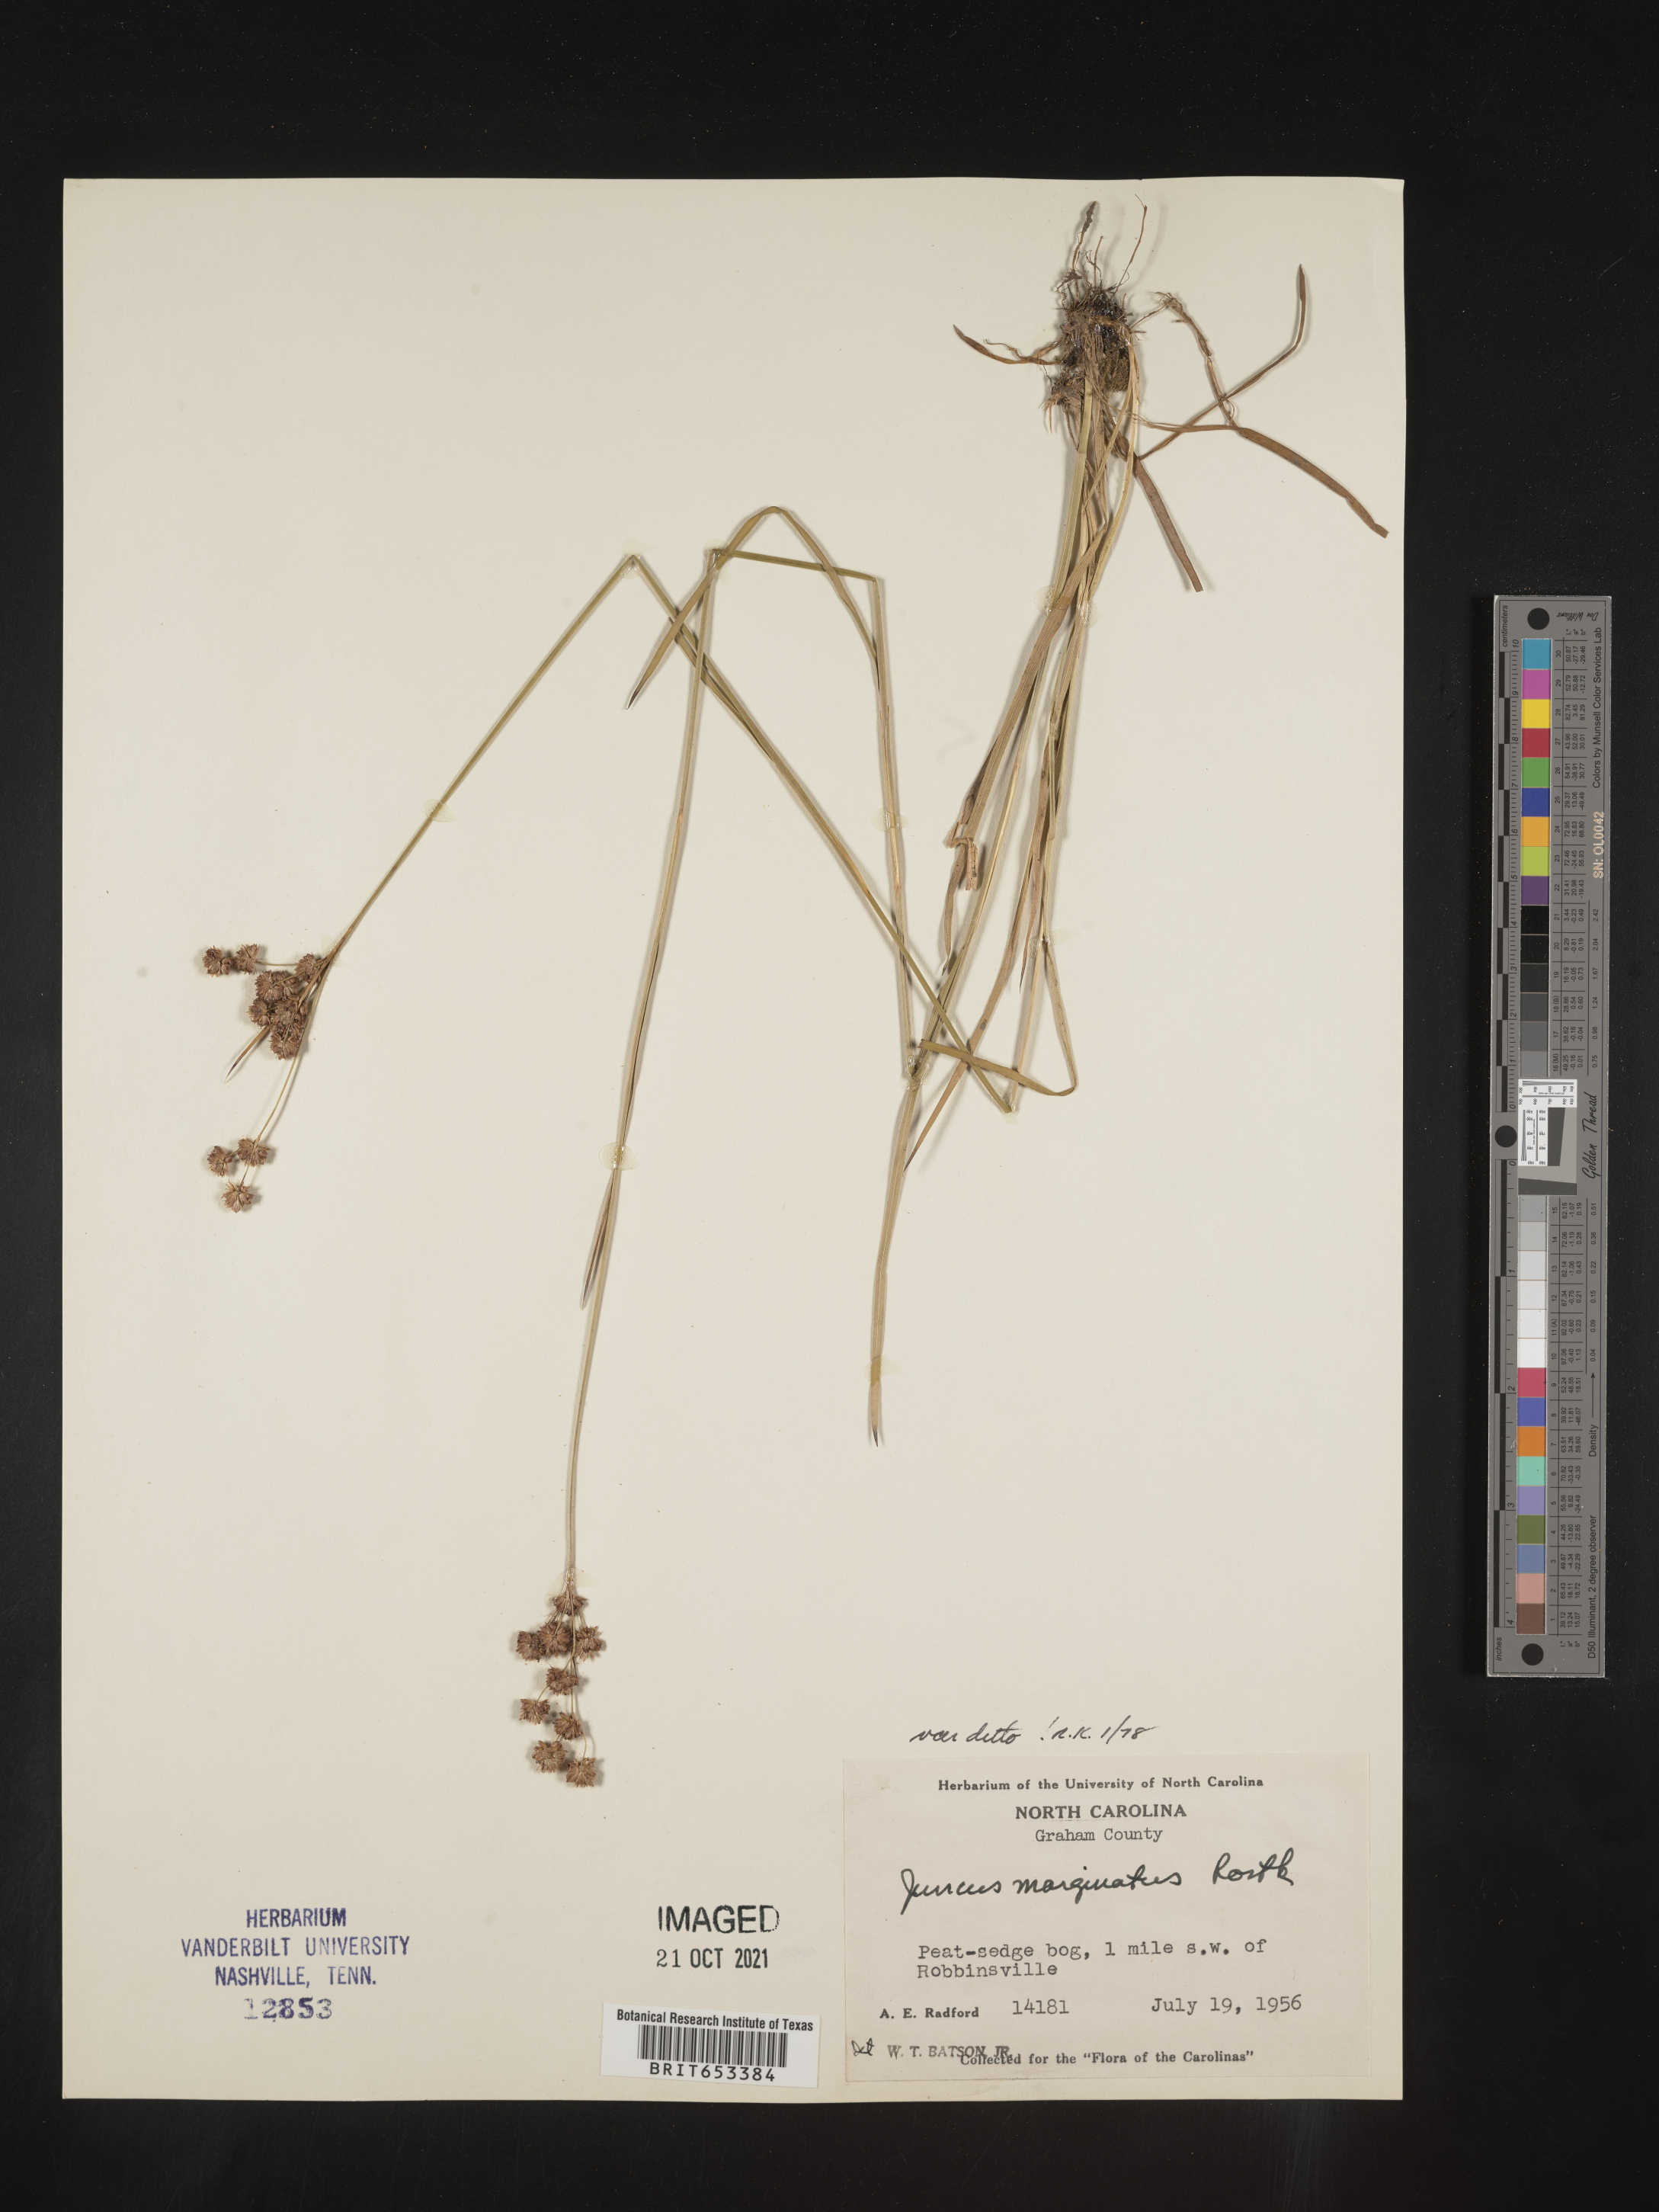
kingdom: Plantae
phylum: Tracheophyta
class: Liliopsida
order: Poales
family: Juncaceae
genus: Juncus
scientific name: Juncus marginatus
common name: Grass-leaf rush
